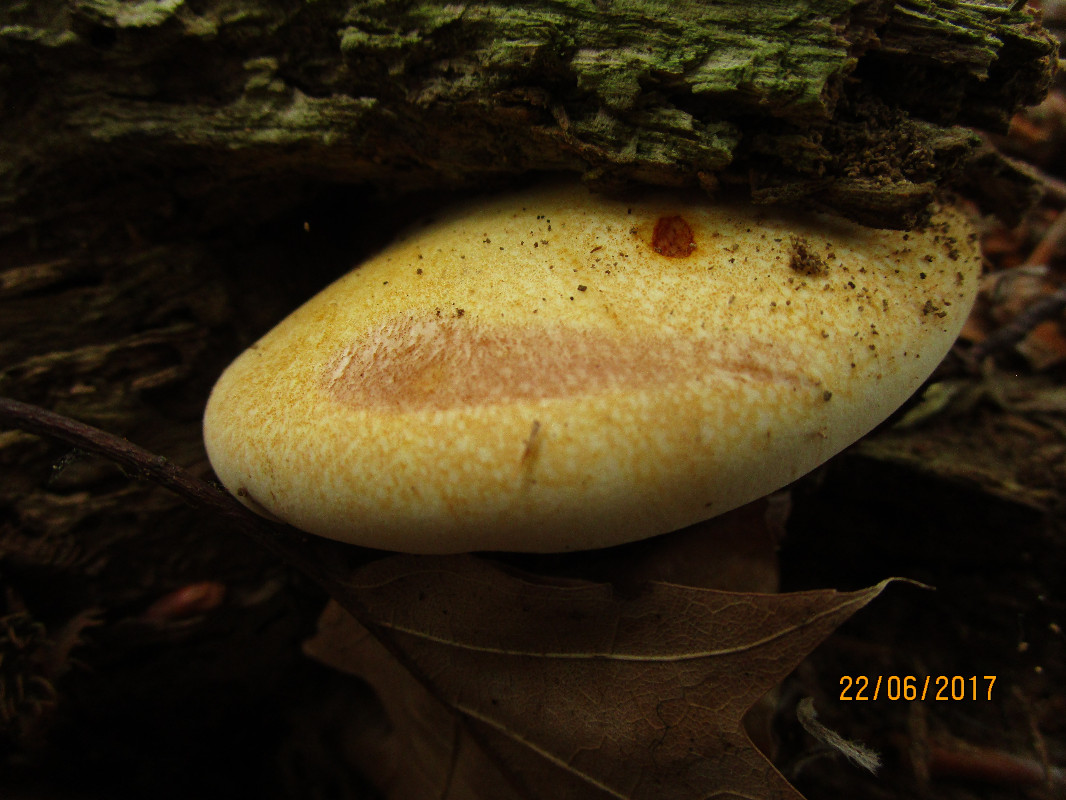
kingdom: Fungi
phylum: Basidiomycota
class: Agaricomycetes
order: Polyporales
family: Fomitopsidaceae
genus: Buglossoporus
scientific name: Buglossoporus quercinus
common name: egetunge
